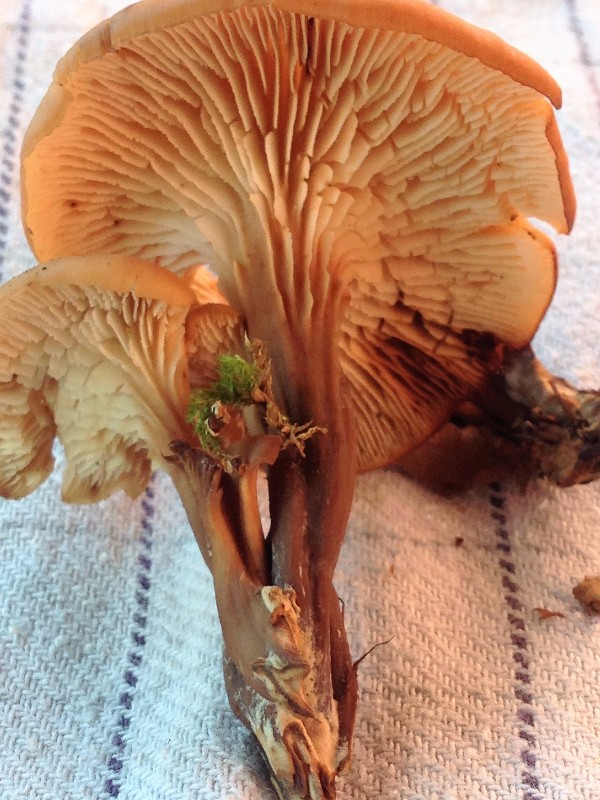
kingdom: Fungi
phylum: Basidiomycota
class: Agaricomycetes
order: Russulales
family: Auriscalpiaceae
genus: Lentinellus
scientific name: Lentinellus cochleatus
